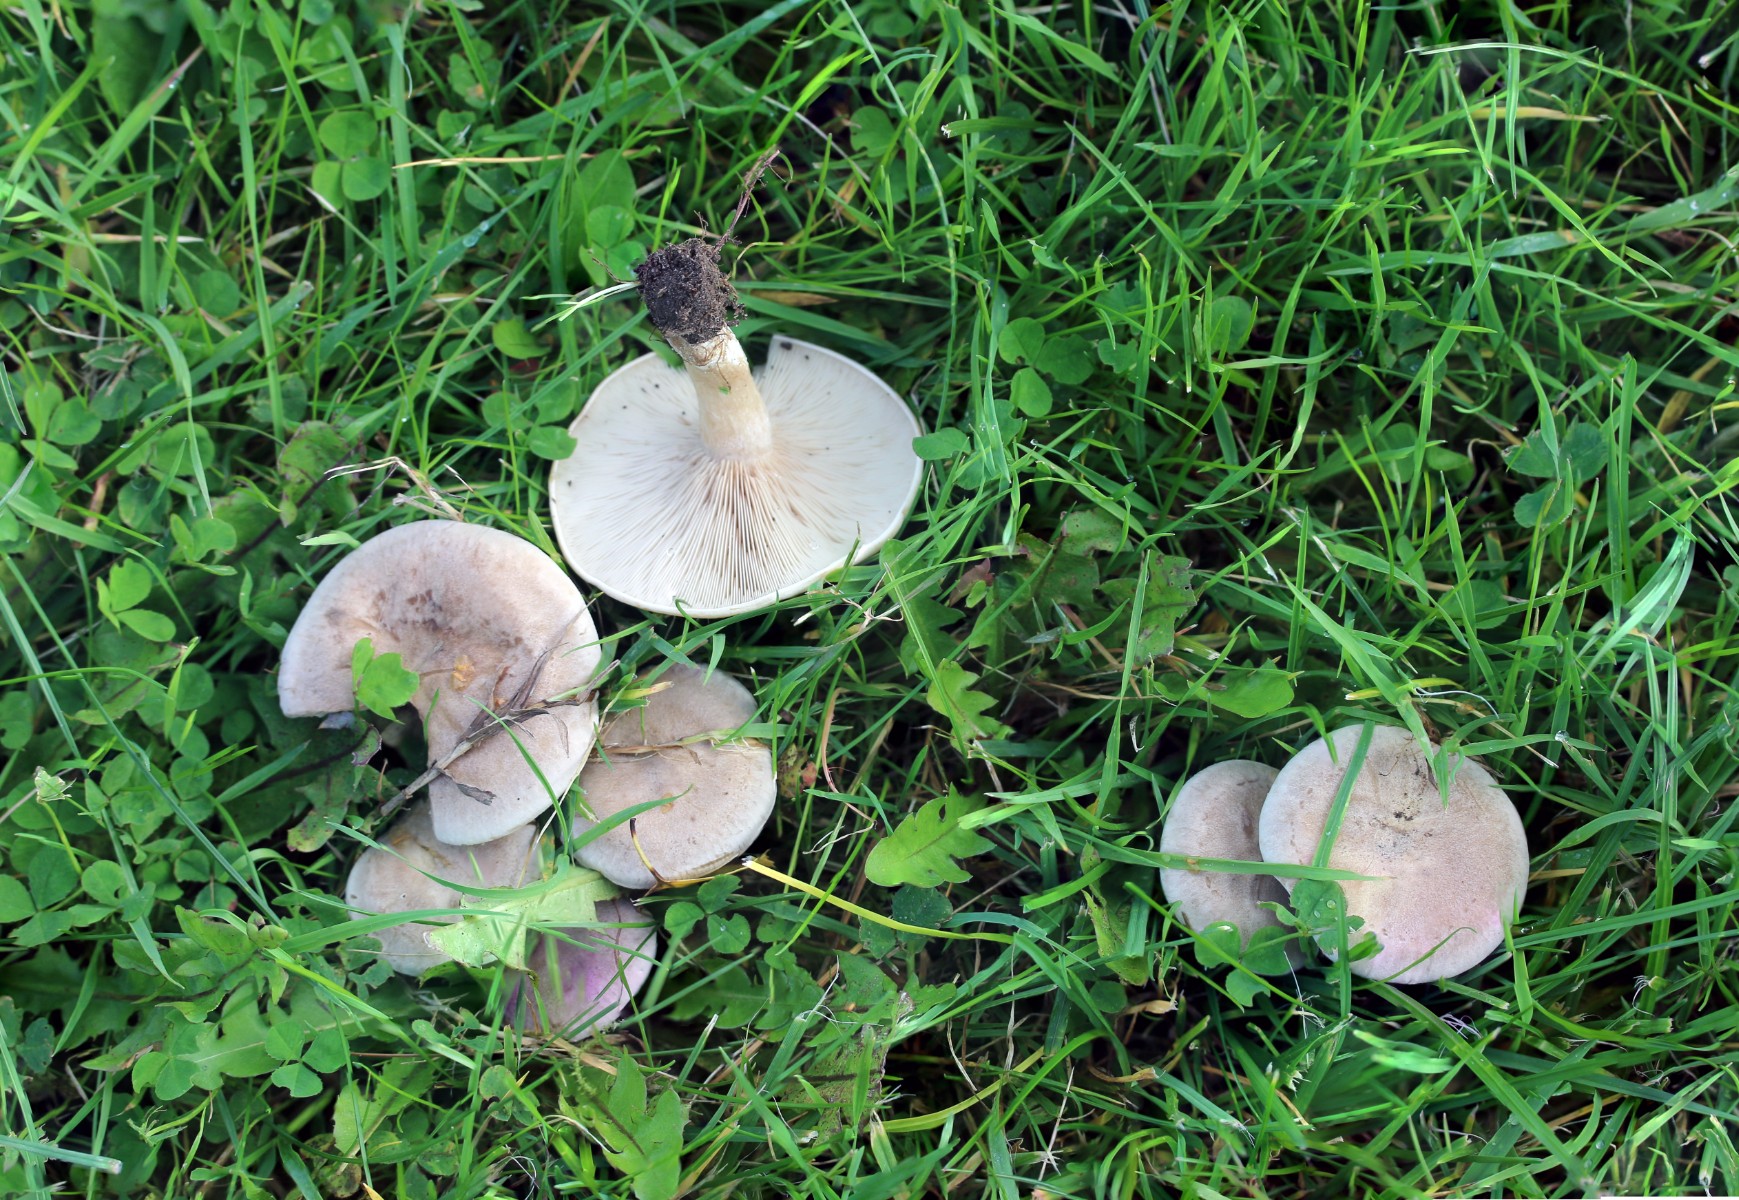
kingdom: Fungi
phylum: Basidiomycota
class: Agaricomycetes
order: Agaricales
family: Tricholomataceae
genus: Clitocybe
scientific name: Clitocybe rivulosa
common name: eng-tragthat
